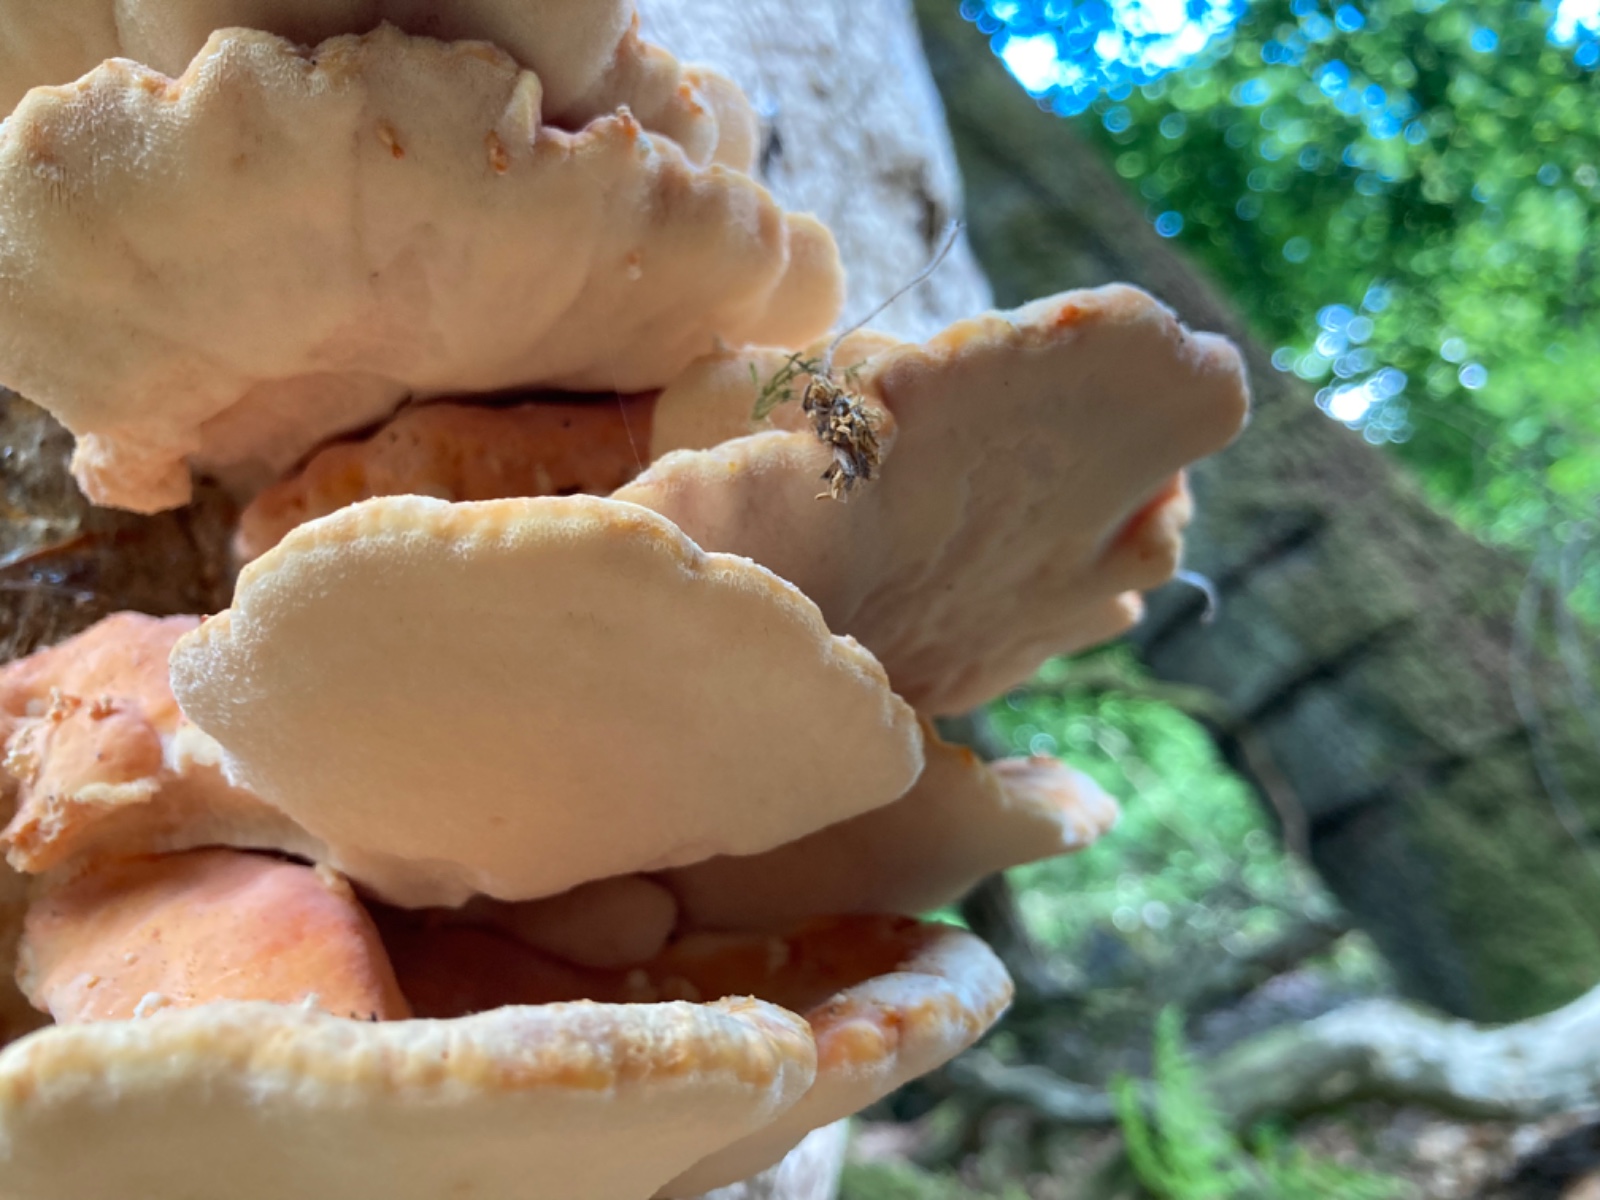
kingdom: Fungi
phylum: Basidiomycota
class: Agaricomycetes
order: Polyporales
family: Laetiporaceae
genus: Laetiporus
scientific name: Laetiporus sulphureus
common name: svovlporesvamp
